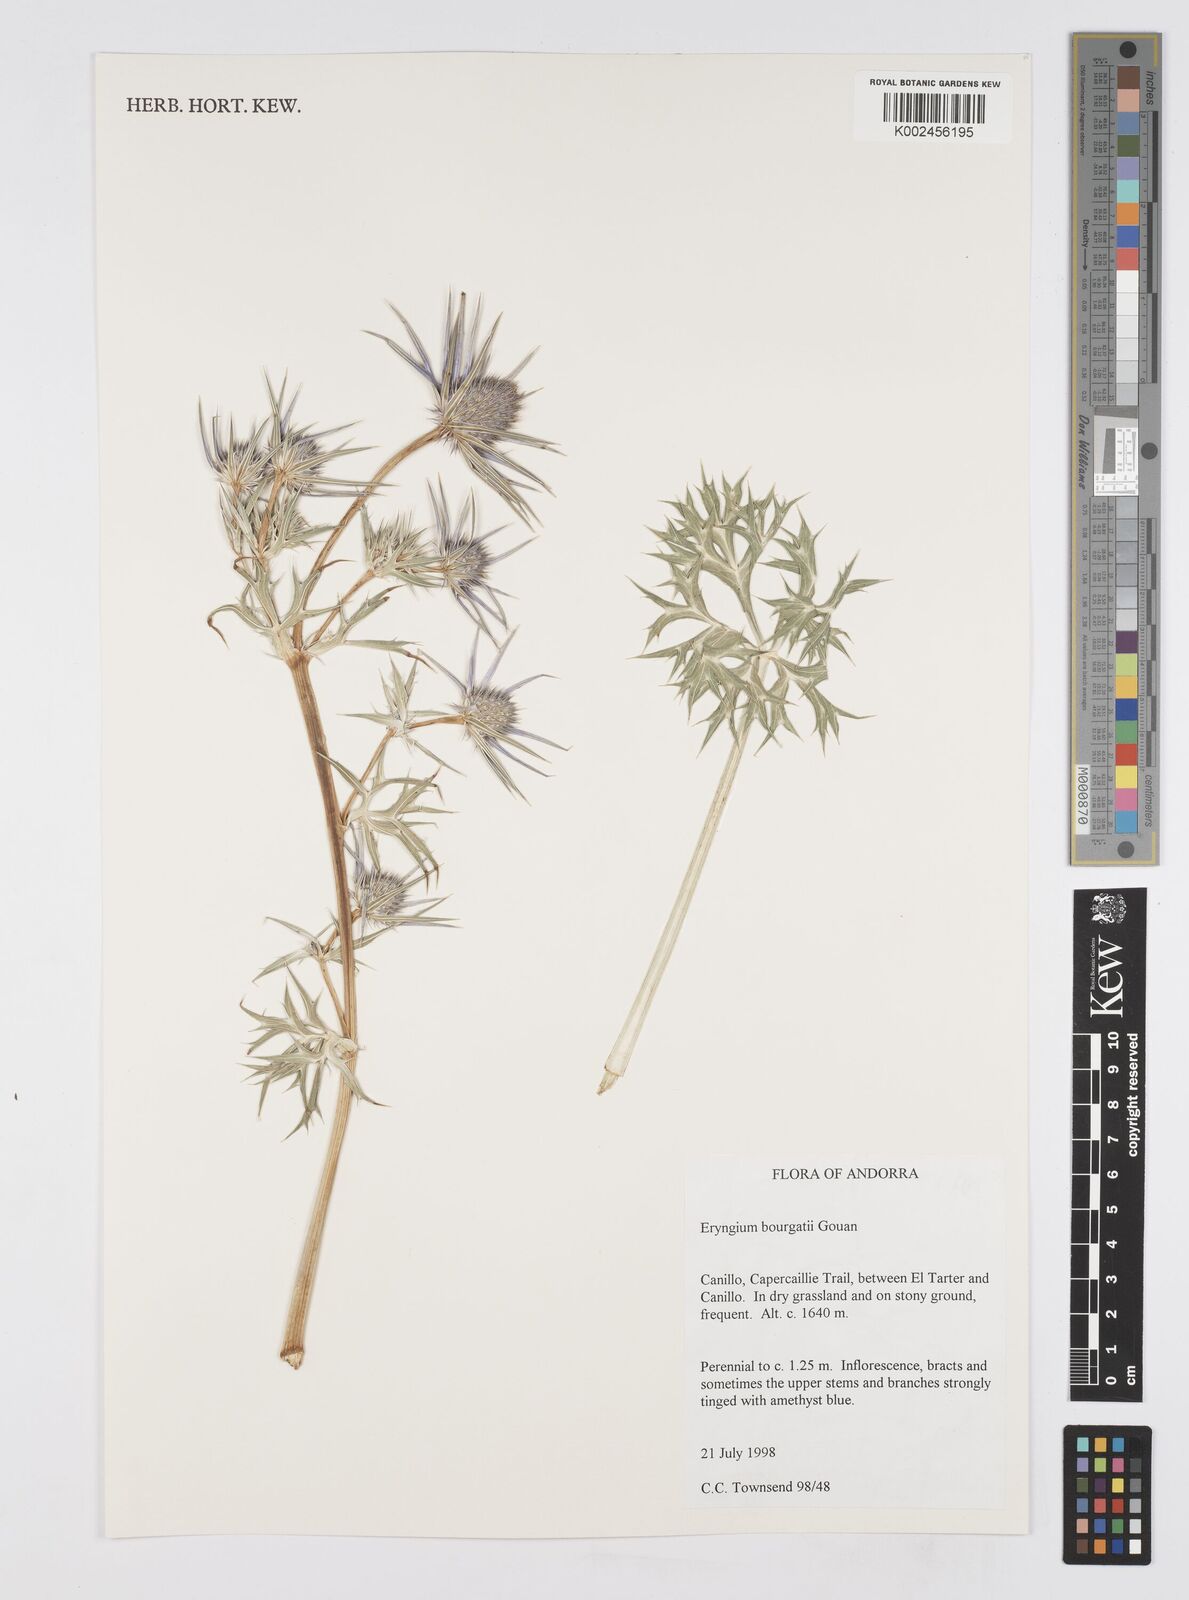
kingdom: Plantae
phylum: Tracheophyta
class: Magnoliopsida
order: Apiales
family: Apiaceae
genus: Eryngium
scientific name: Eryngium bourgatii
